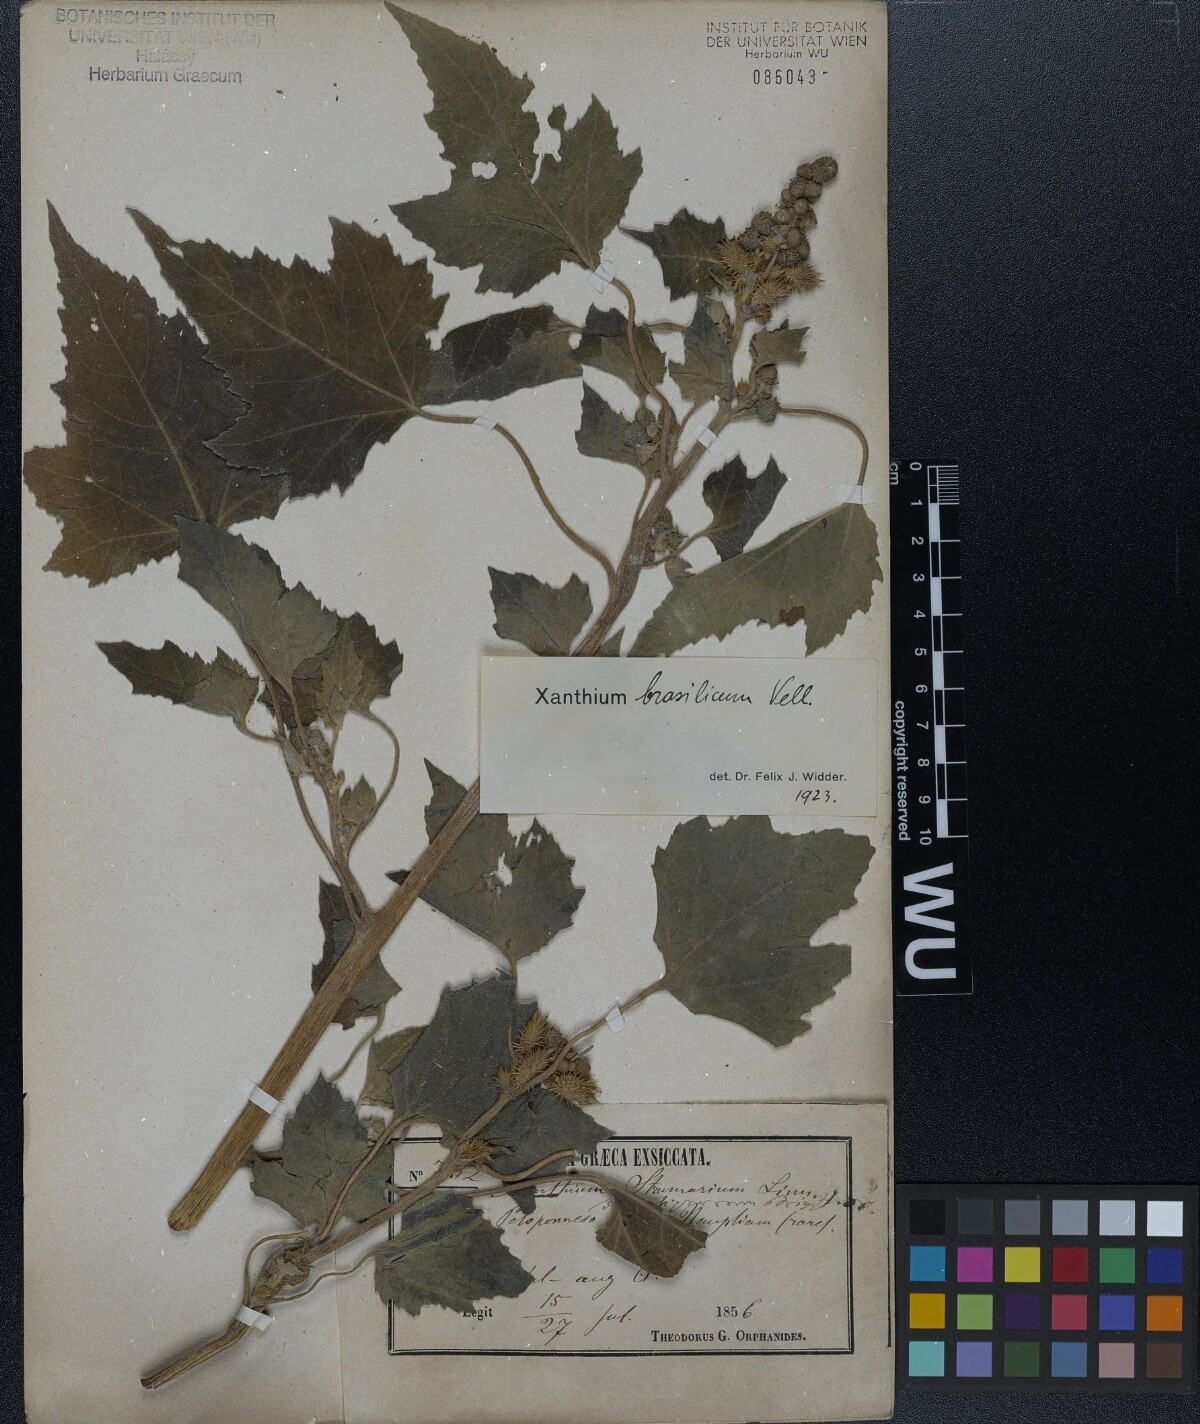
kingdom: Plantae
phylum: Tracheophyta
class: Magnoliopsida
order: Asterales
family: Asteraceae
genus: Xanthium
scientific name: Xanthium strumarium
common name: Rough cocklebur
